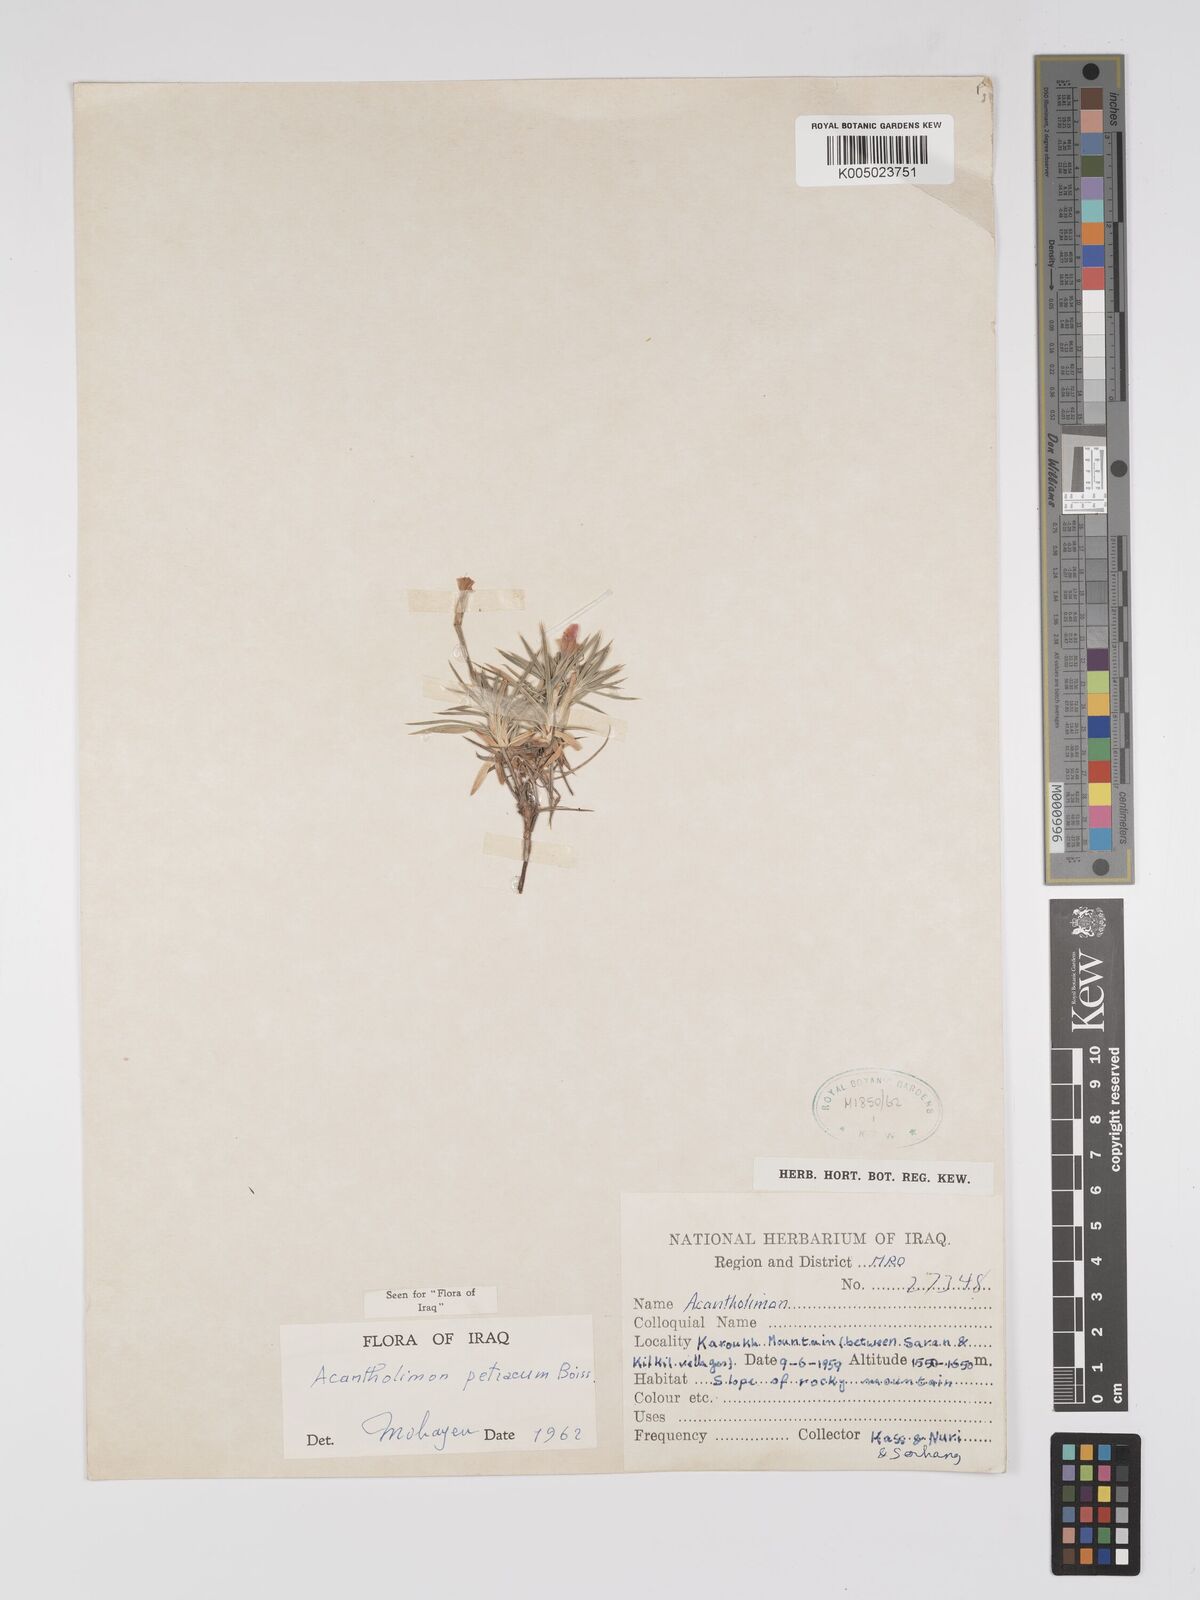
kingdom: Plantae
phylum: Tracheophyta
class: Magnoliopsida
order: Caryophyllales
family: Plumbaginaceae
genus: Acantholimon
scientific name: Acantholimon petraeum
